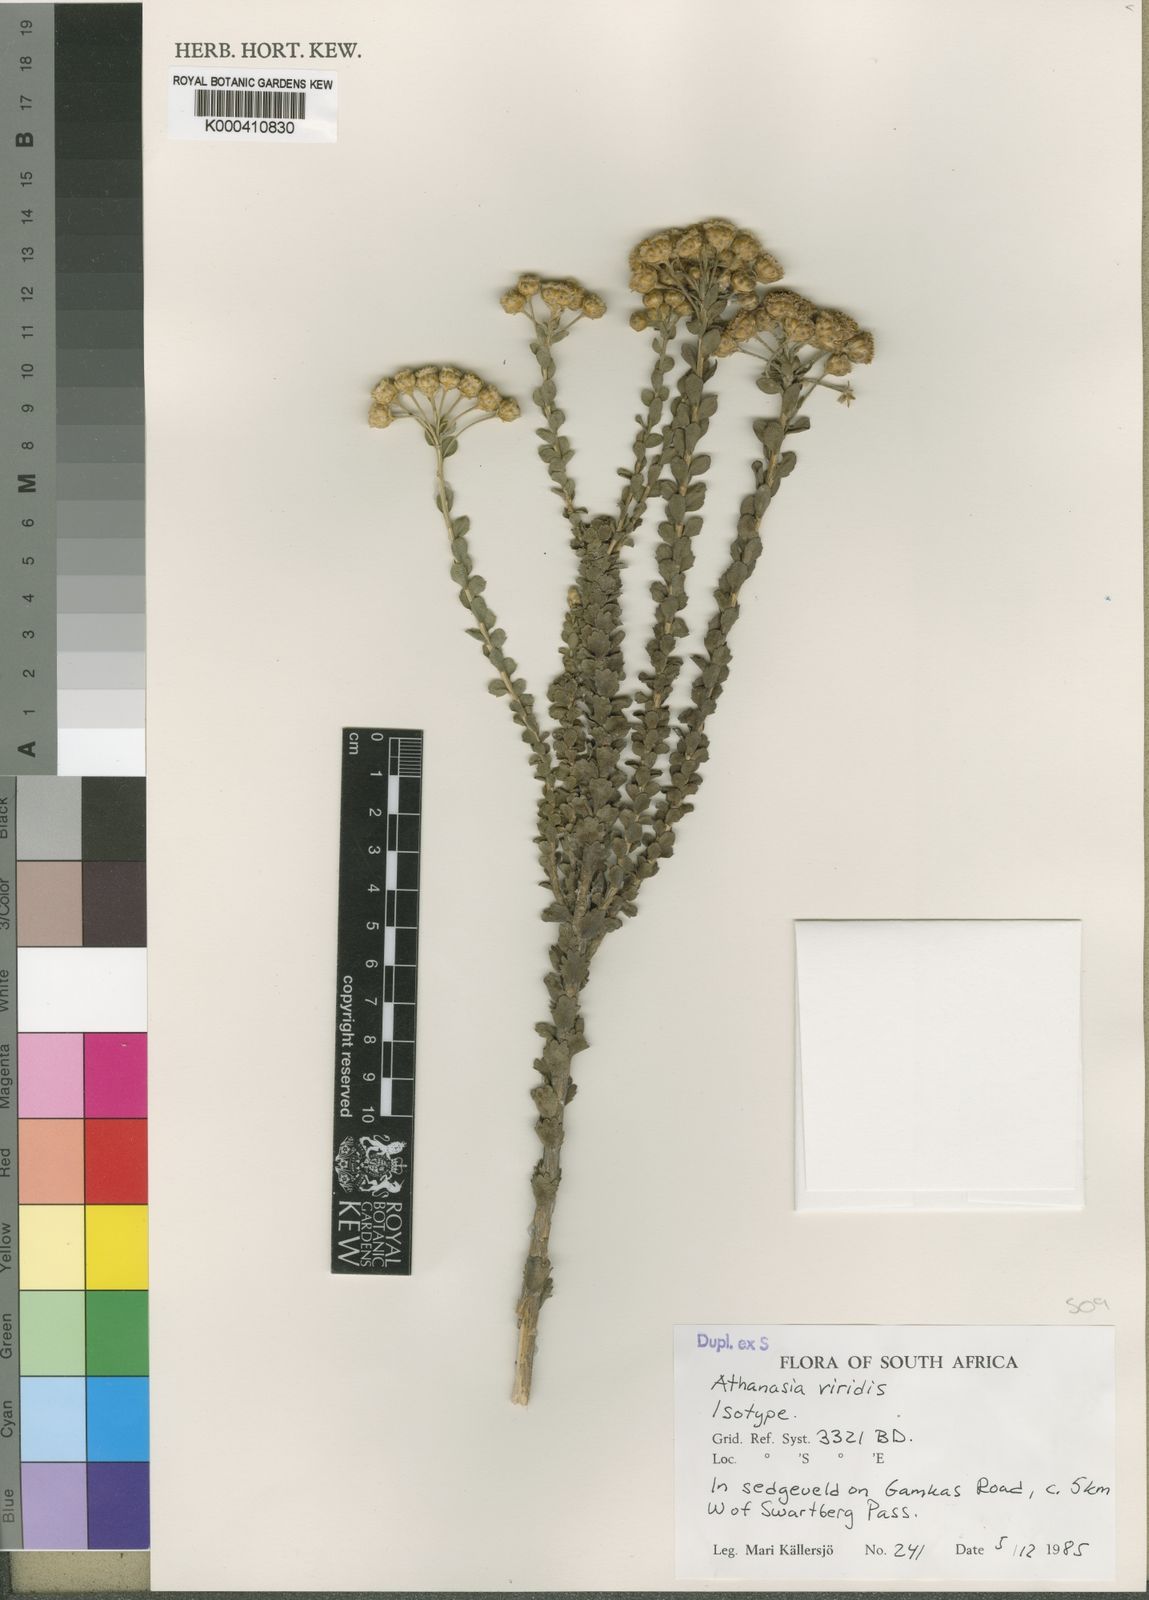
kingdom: Plantae
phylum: Tracheophyta
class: Magnoliopsida
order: Asterales
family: Asteraceae
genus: Athanasia
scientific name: Athanasia
